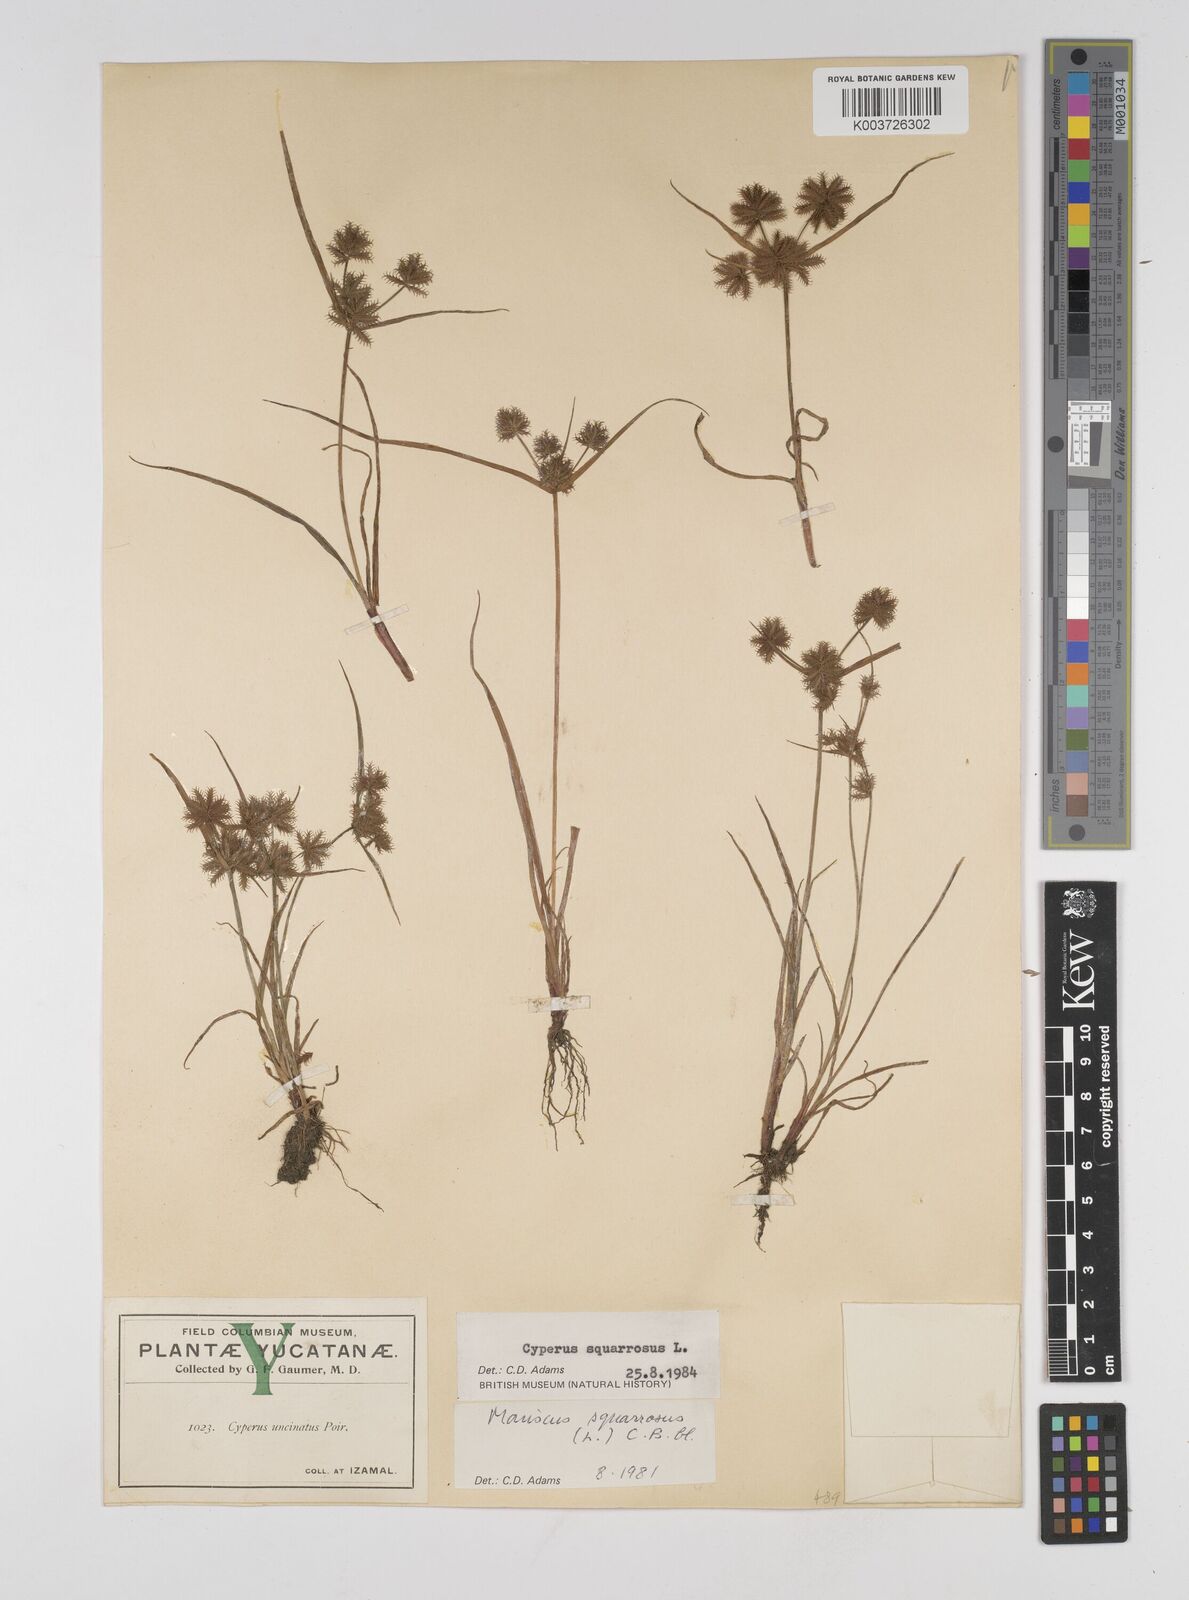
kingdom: Plantae
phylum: Tracheophyta
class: Liliopsida
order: Poales
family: Cyperaceae
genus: Cyperus
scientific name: Cyperus squarrosus
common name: Awned cyperus
